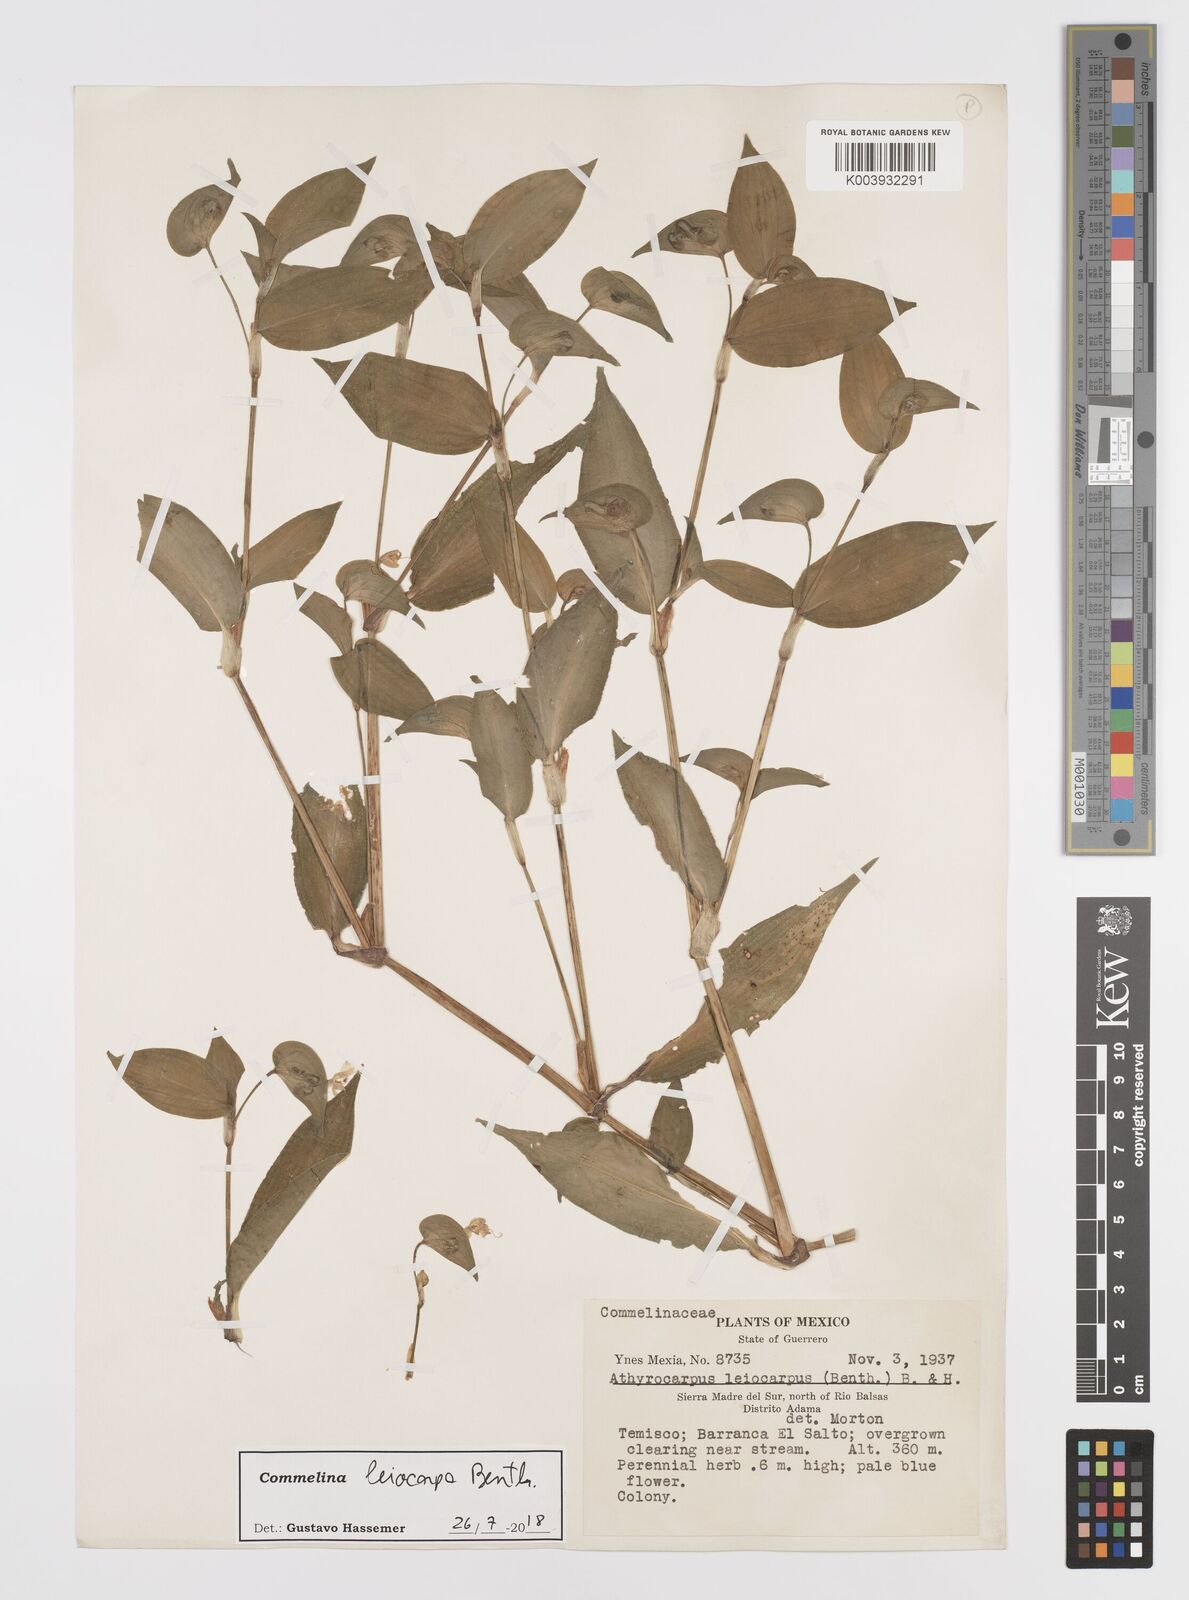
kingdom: Plantae
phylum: Tracheophyta
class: Liliopsida
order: Commelinales
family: Commelinaceae
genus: Commelina
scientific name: Commelina leiocarpa
